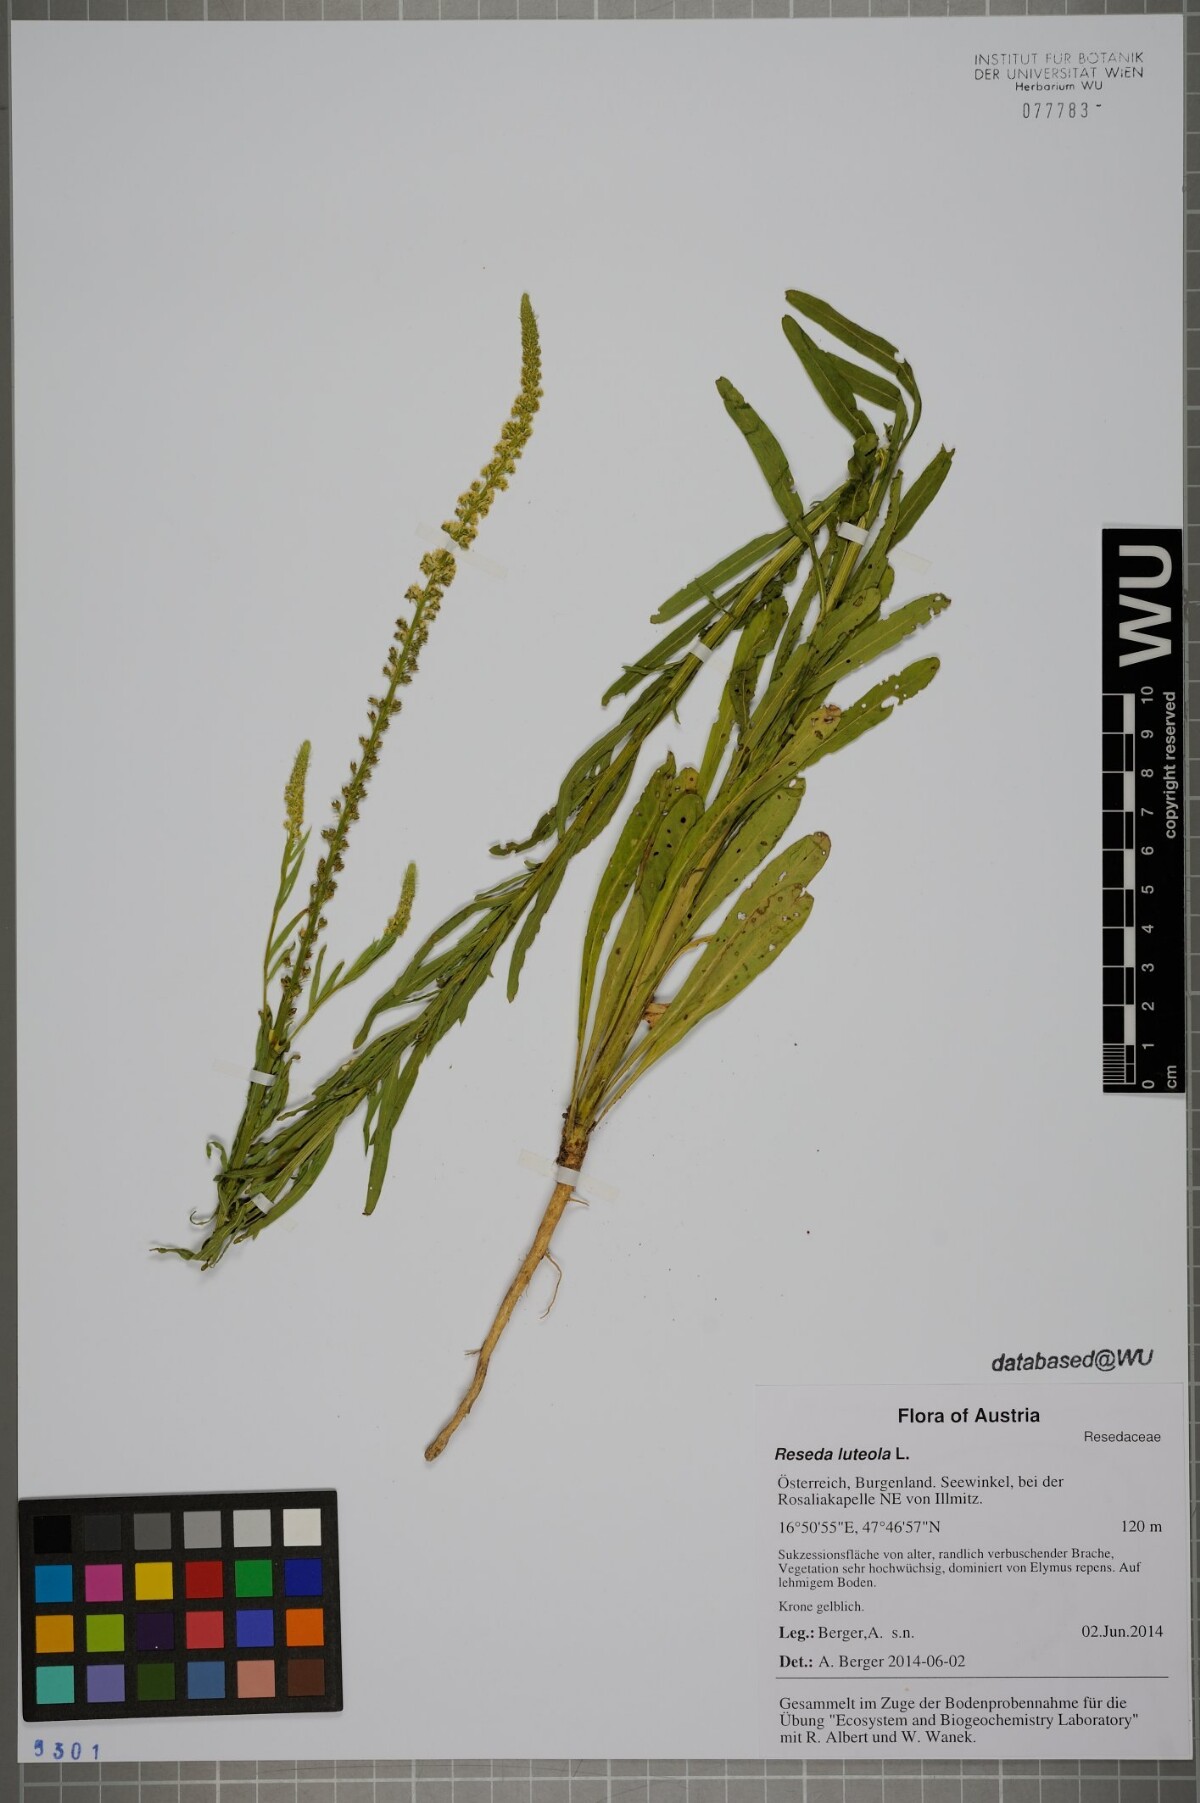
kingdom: Plantae
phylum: Tracheophyta
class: Magnoliopsida
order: Brassicales
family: Resedaceae
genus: Reseda
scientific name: Reseda luteola
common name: Weld
